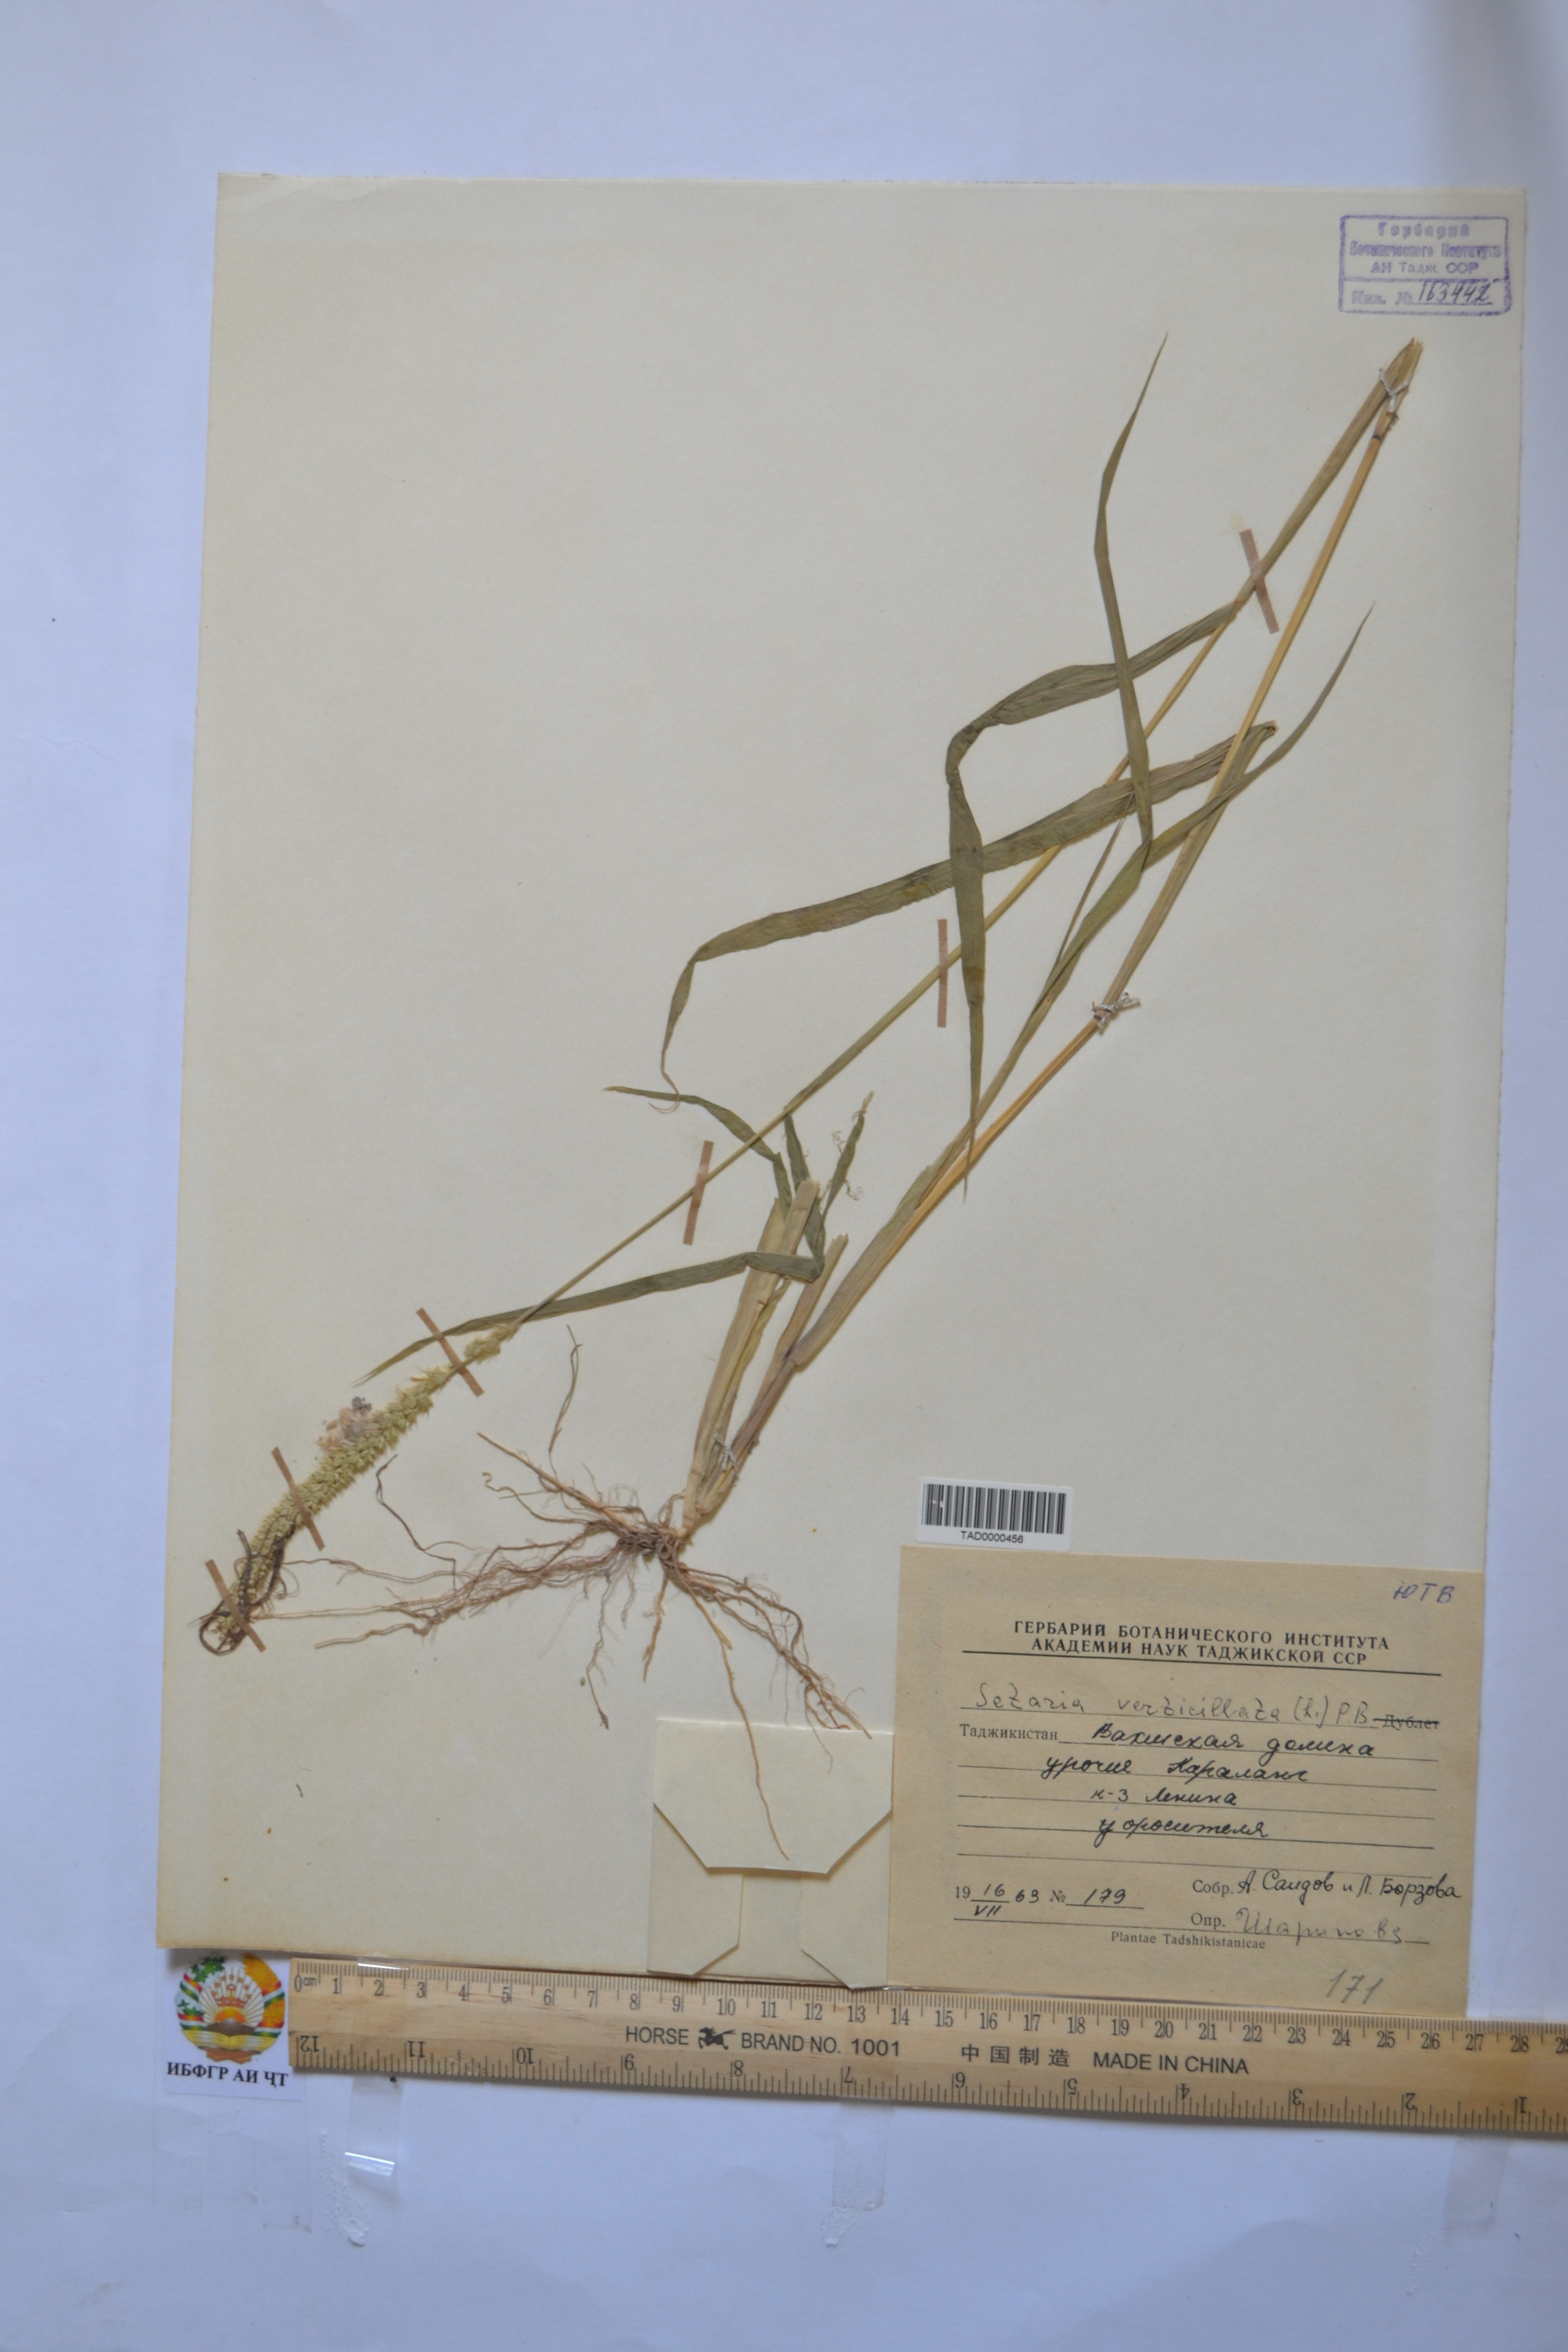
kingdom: Plantae
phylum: Tracheophyta
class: Liliopsida
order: Poales
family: Poaceae
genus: Setaria
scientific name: Setaria verticillata
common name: Hooked bristlegrass
